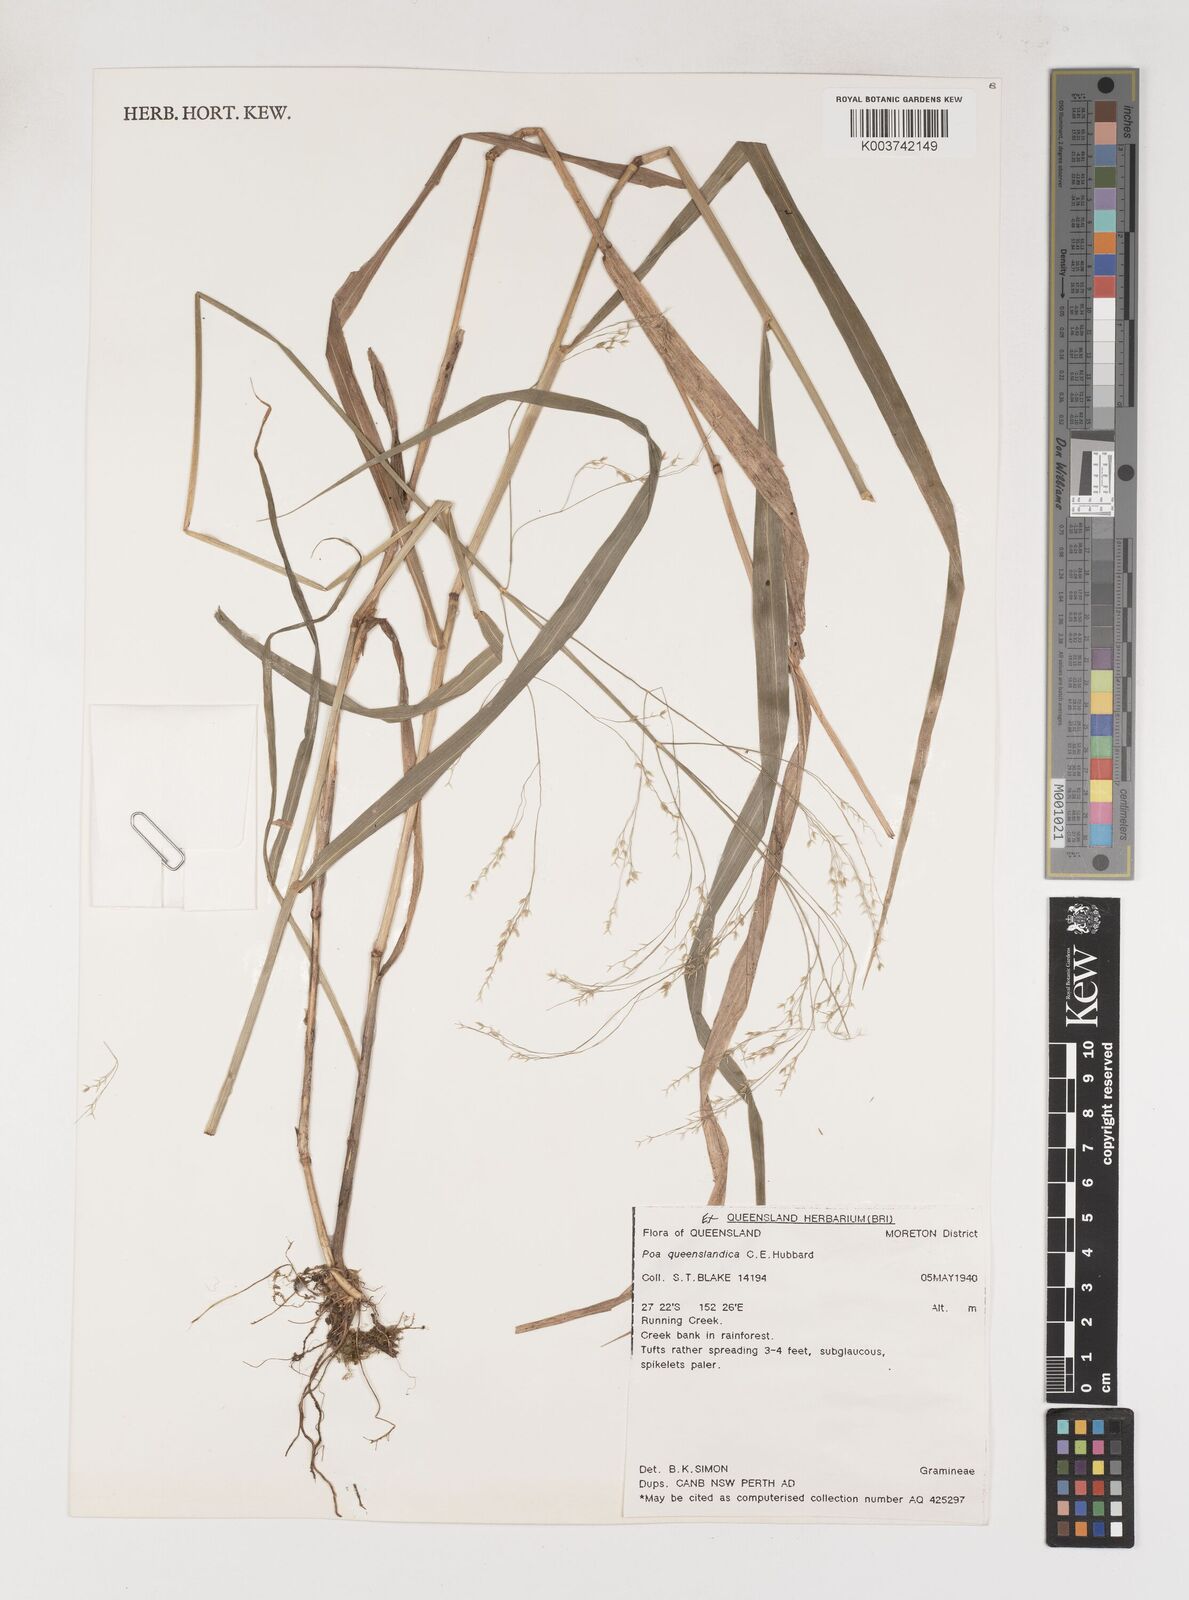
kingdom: Plantae
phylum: Tracheophyta
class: Liliopsida
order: Poales
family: Poaceae
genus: Sylvipoa
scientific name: Sylvipoa queenslandica
